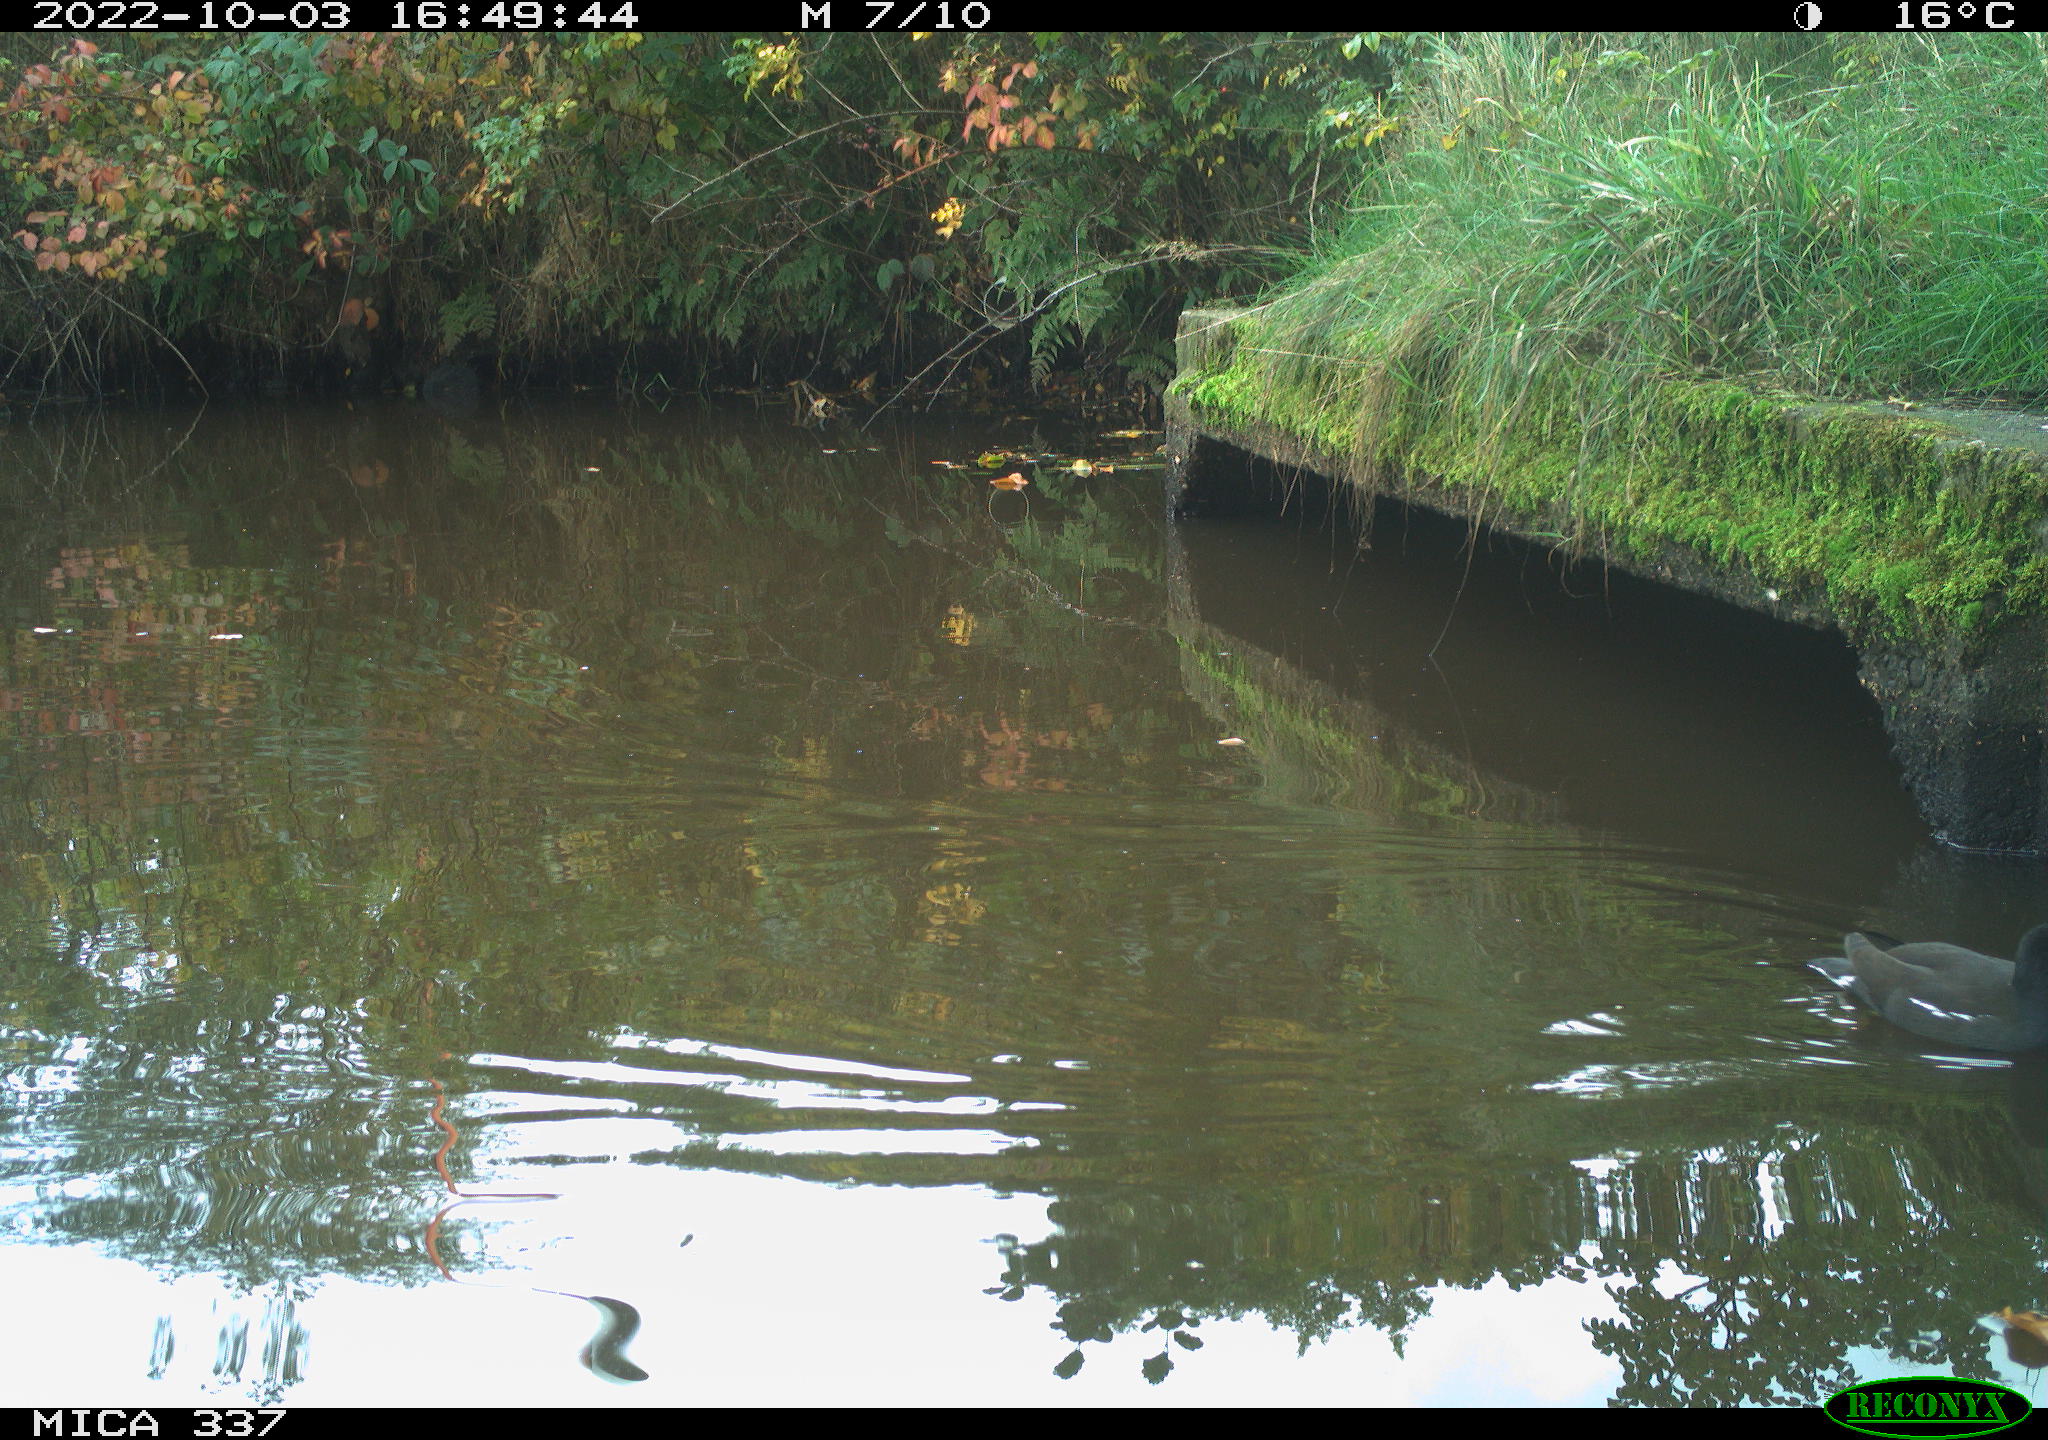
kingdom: Animalia
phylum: Chordata
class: Aves
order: Gruiformes
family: Rallidae
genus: Gallinula
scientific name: Gallinula chloropus
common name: Common moorhen
